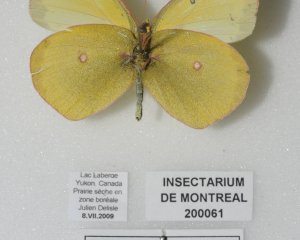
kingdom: Animalia
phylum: Arthropoda
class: Insecta
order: Lepidoptera
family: Pieridae
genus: Colias
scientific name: Colias philodice
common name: Clouded Sulphur
